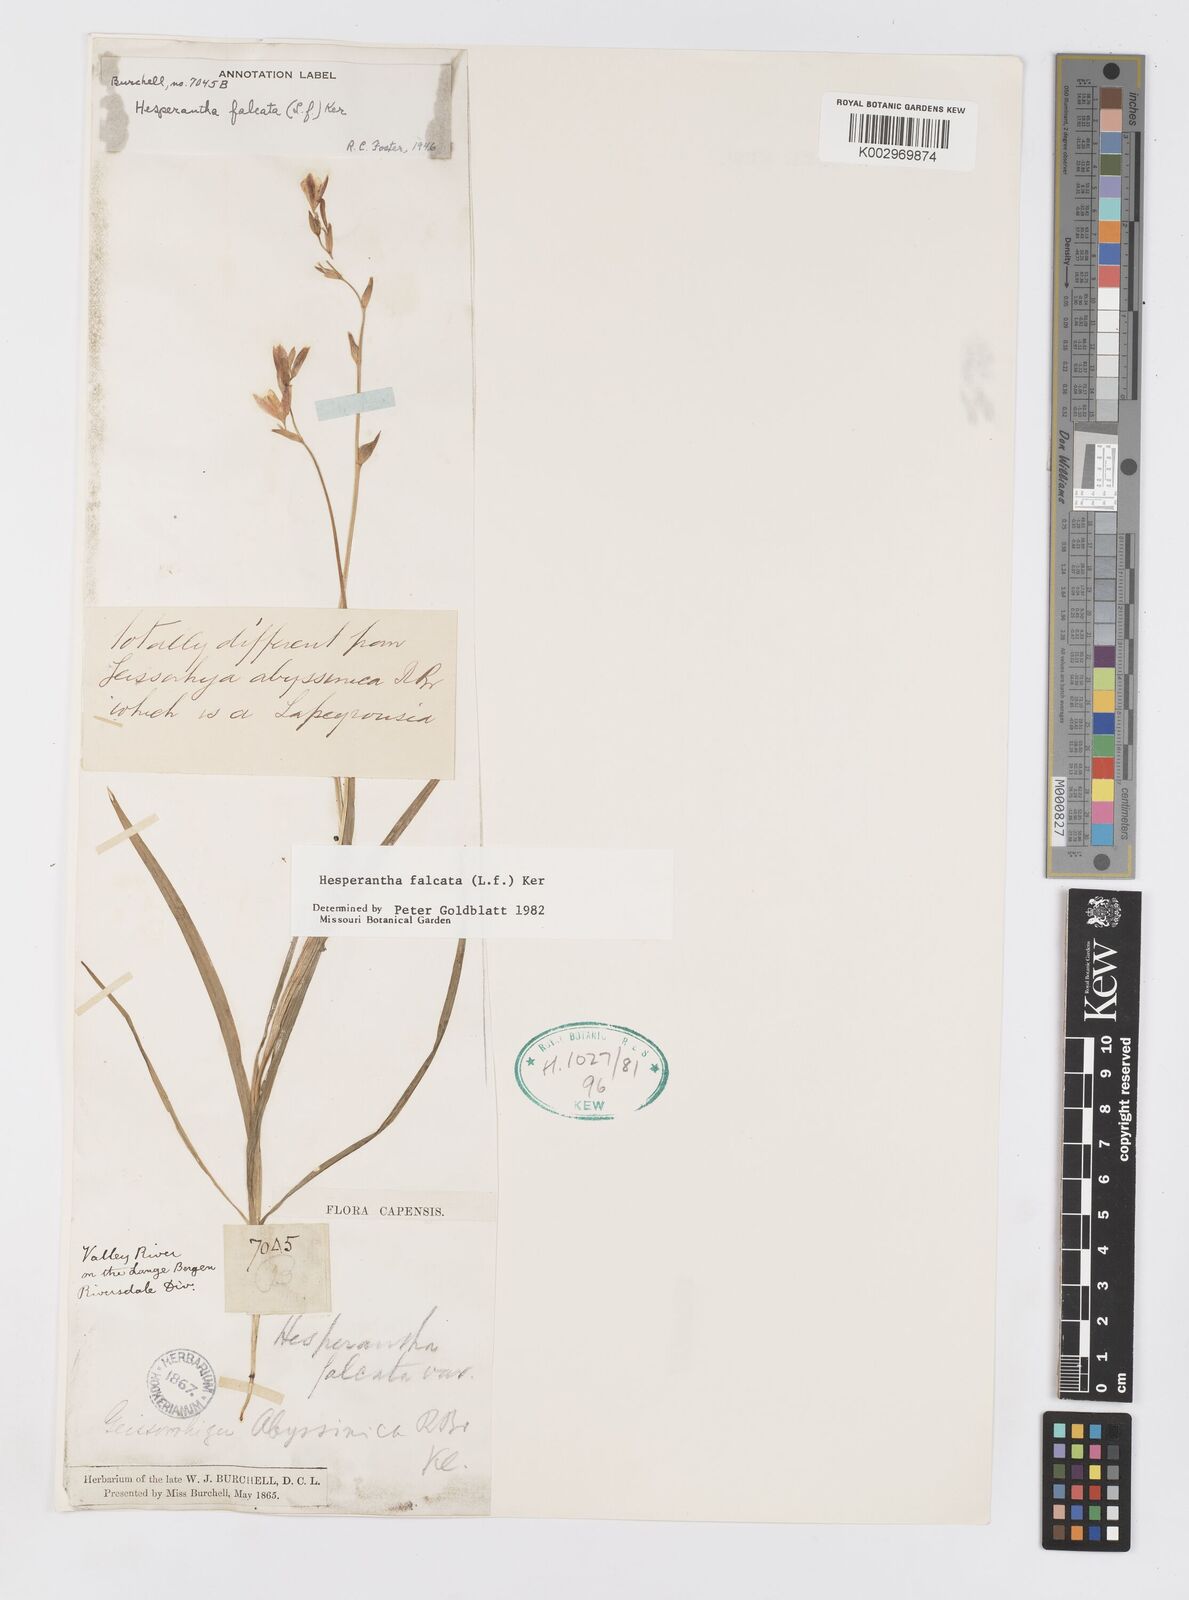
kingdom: Plantae
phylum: Tracheophyta
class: Liliopsida
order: Asparagales
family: Iridaceae
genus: Hesperantha
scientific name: Hesperantha falcata
